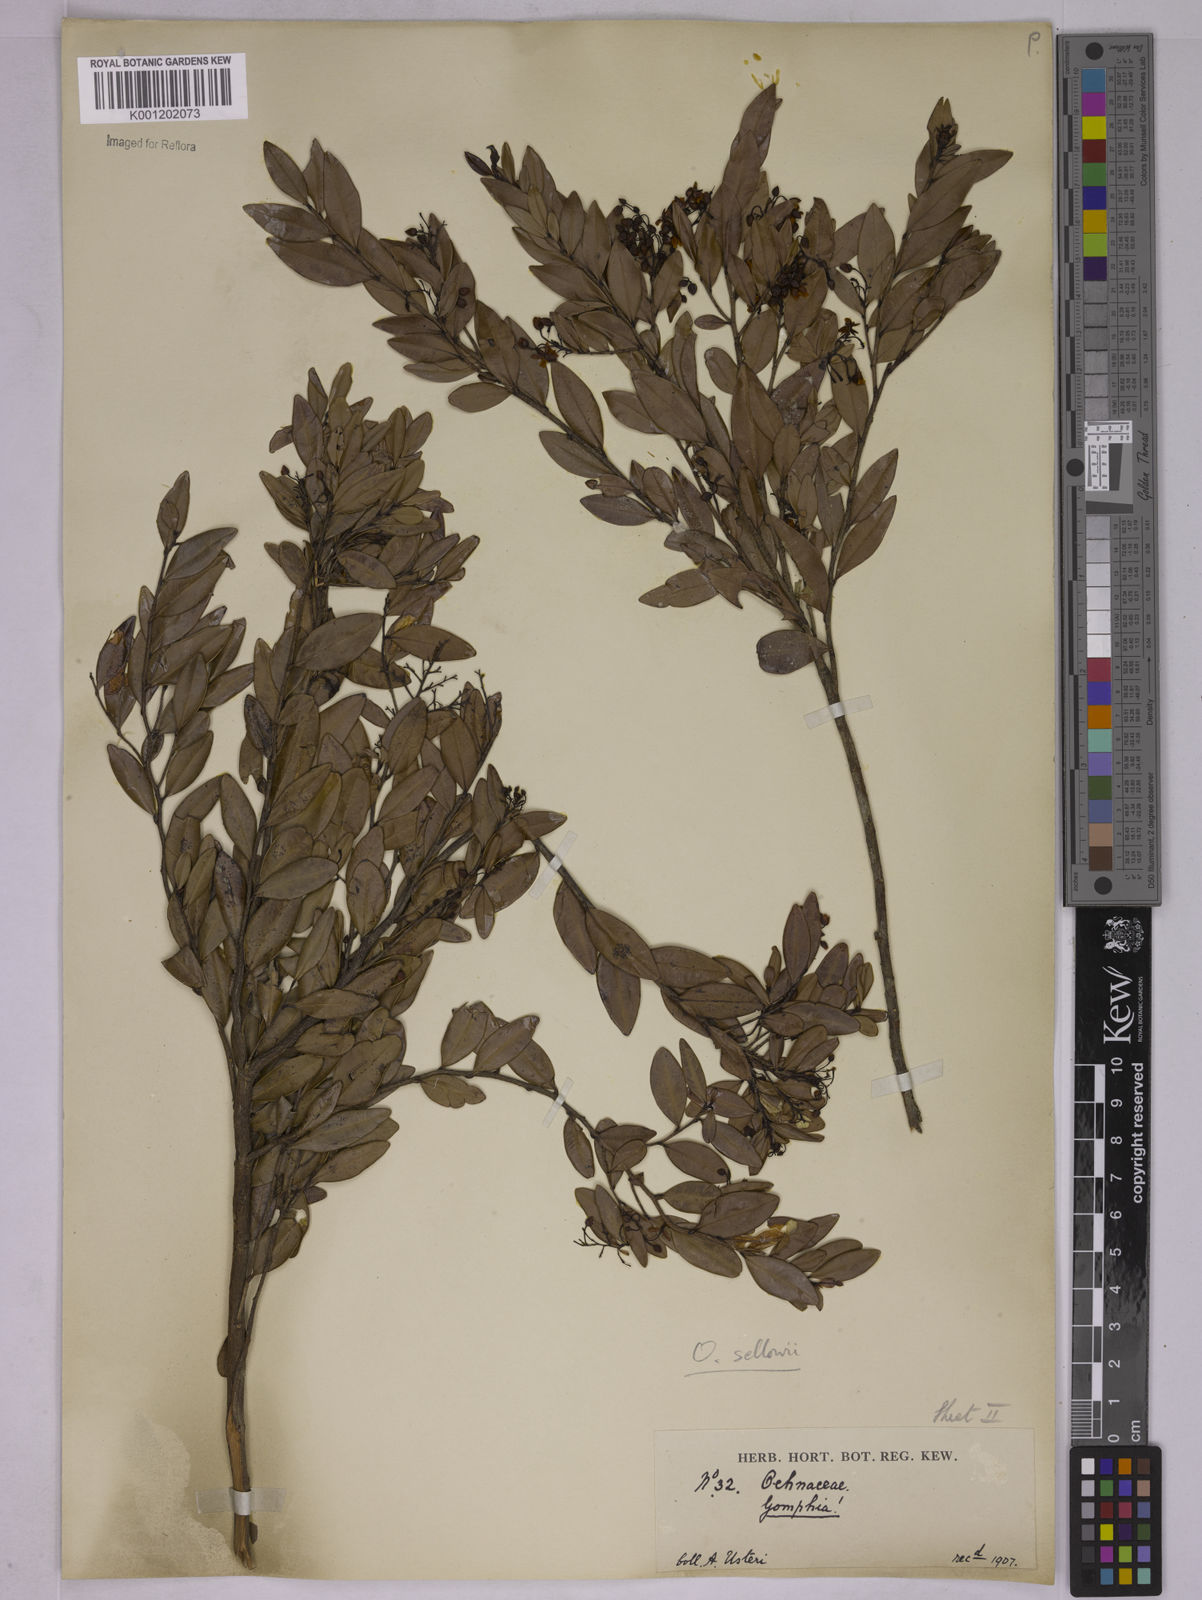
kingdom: Plantae
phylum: Tracheophyta
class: Magnoliopsida
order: Malpighiales
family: Ochnaceae
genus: Ouratea
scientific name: Ouratea sellowii
